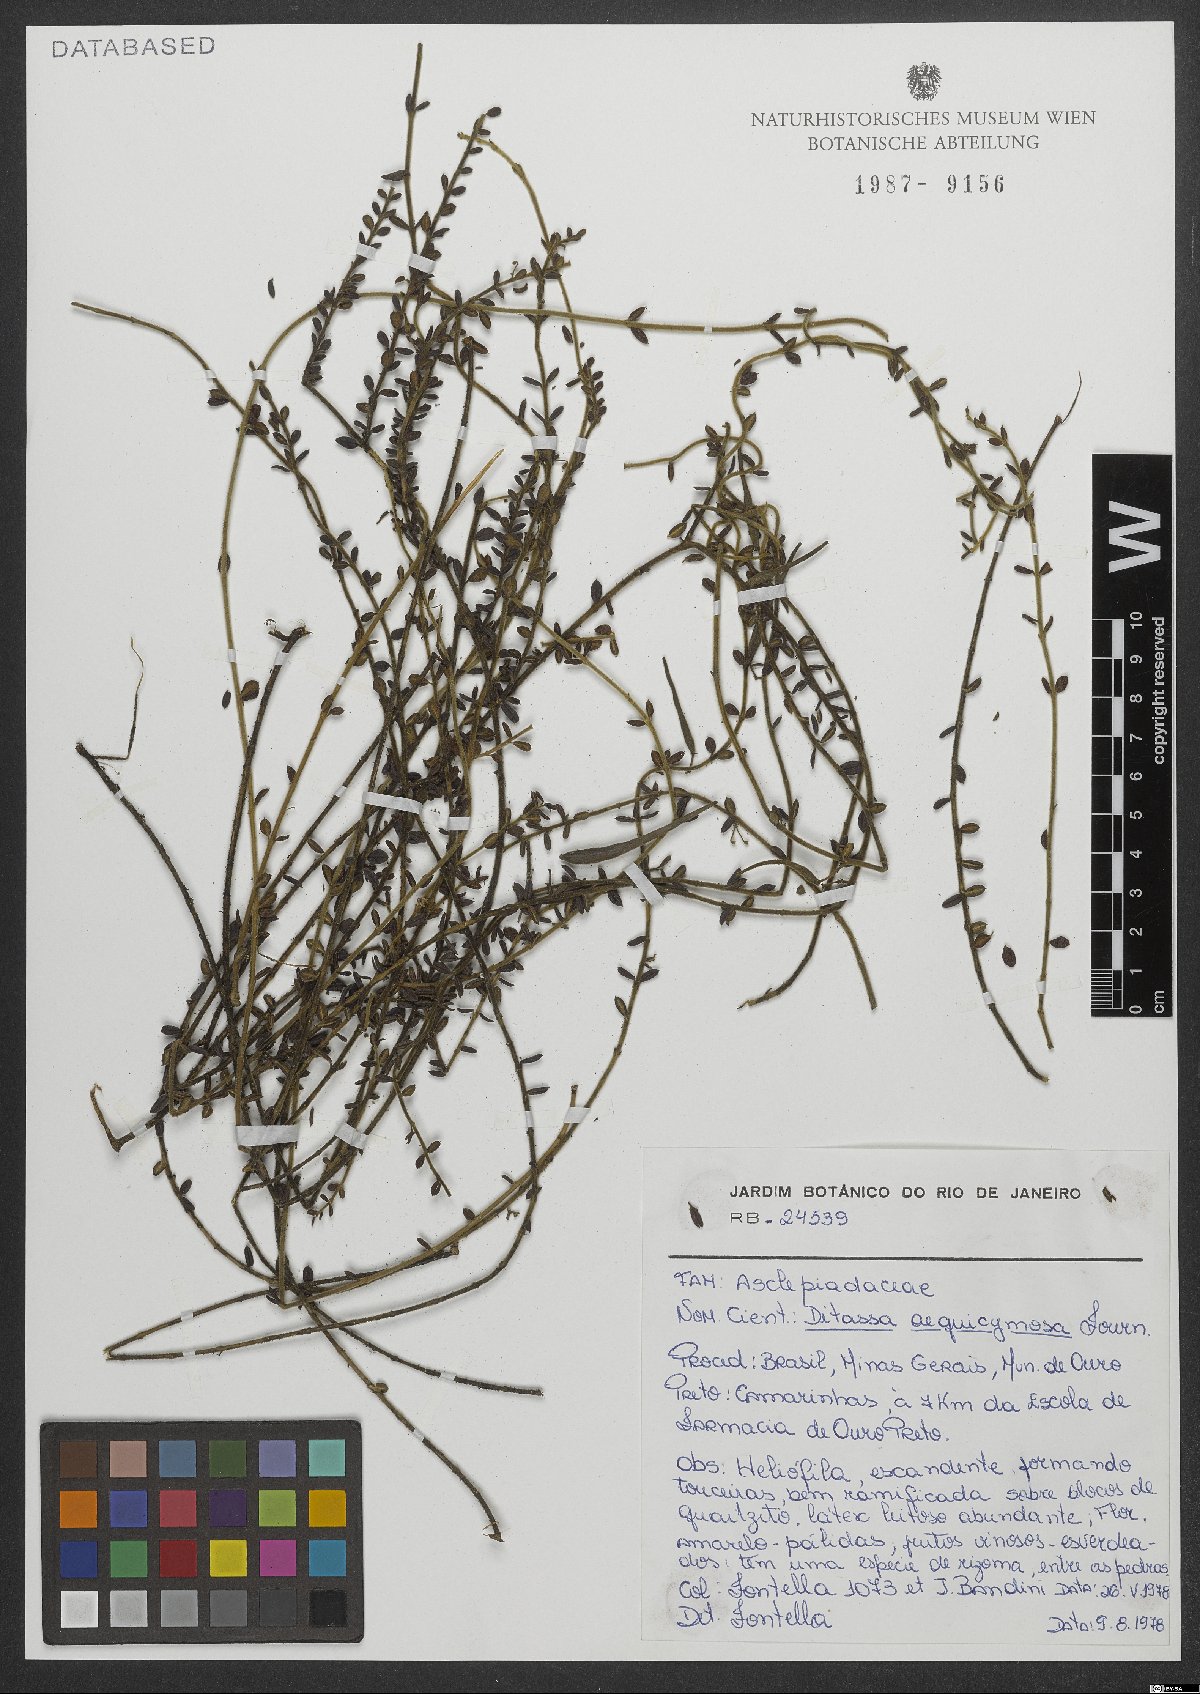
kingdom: Plantae
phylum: Tracheophyta
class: Magnoliopsida
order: Gentianales
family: Apocynaceae
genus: Ditassa
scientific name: Ditassa aequicymosa
